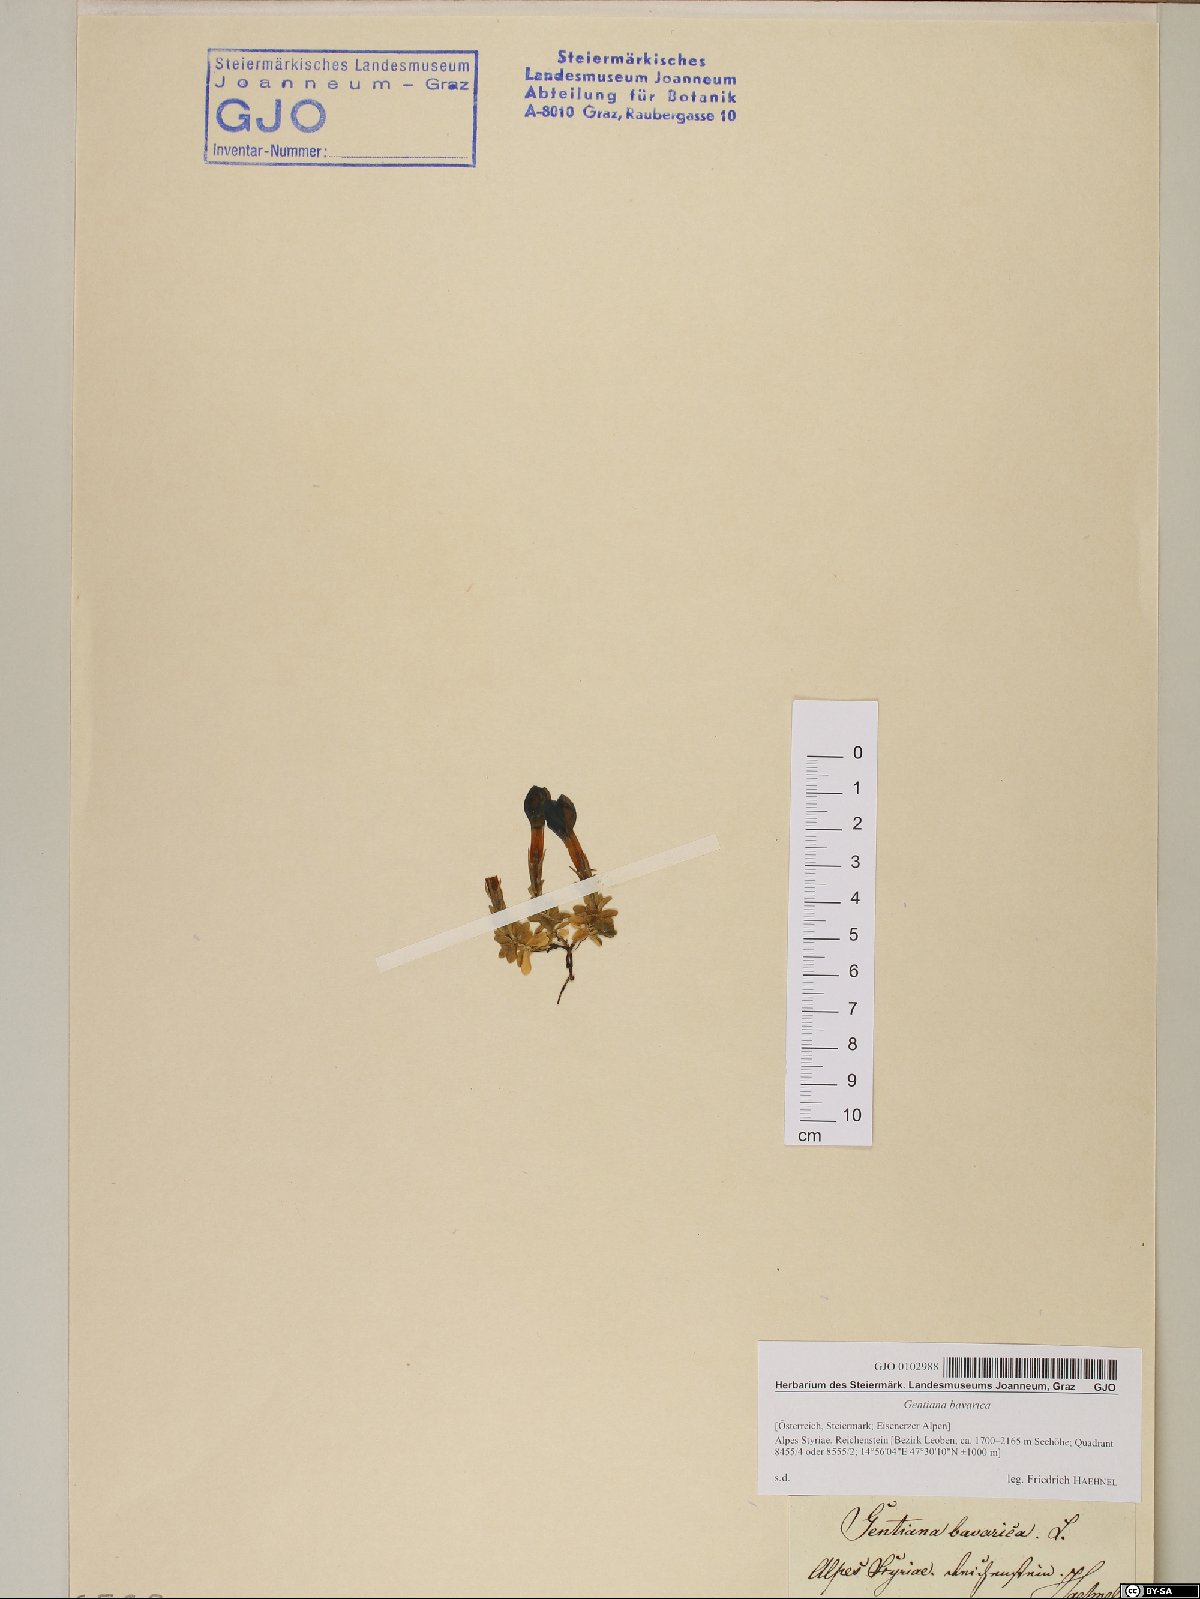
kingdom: Plantae
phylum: Tracheophyta
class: Magnoliopsida
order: Gentianales
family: Gentianaceae
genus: Gentiana
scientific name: Gentiana bavarica
